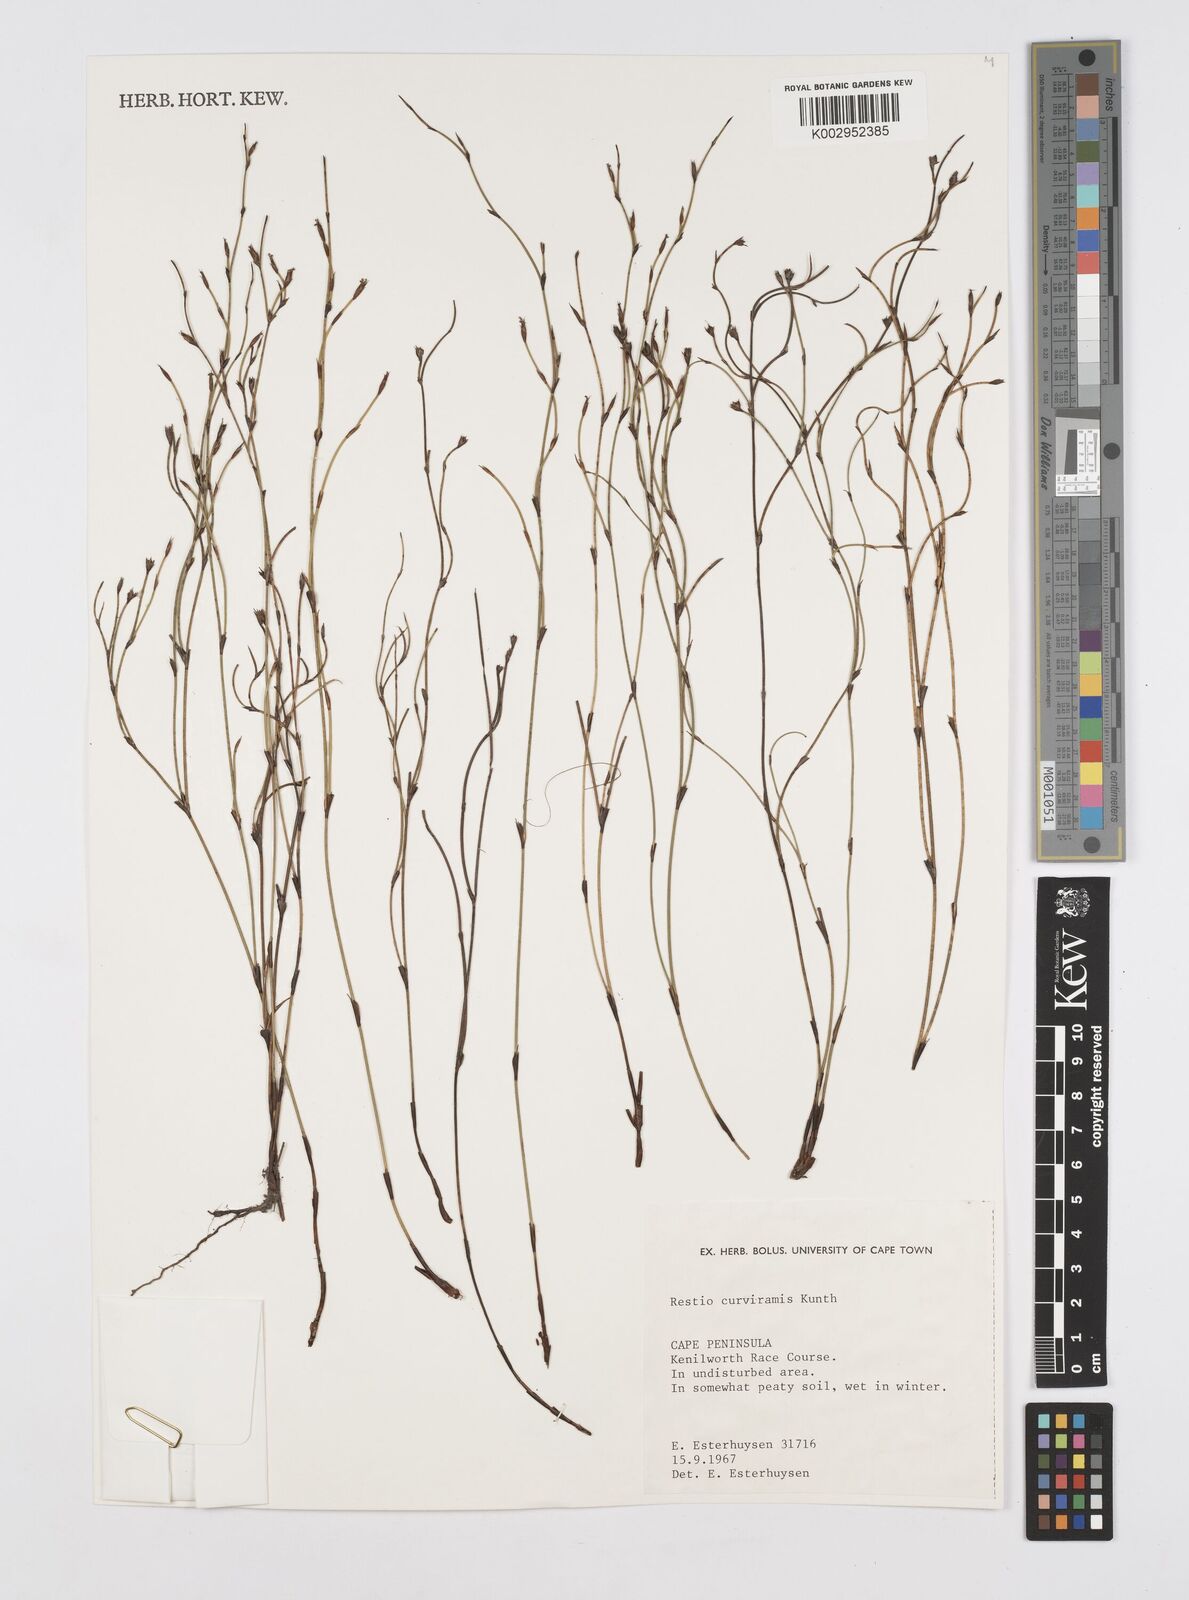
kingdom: Plantae
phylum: Tracheophyta
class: Liliopsida
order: Poales
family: Restionaceae
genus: Restio
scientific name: Restio curviramis
